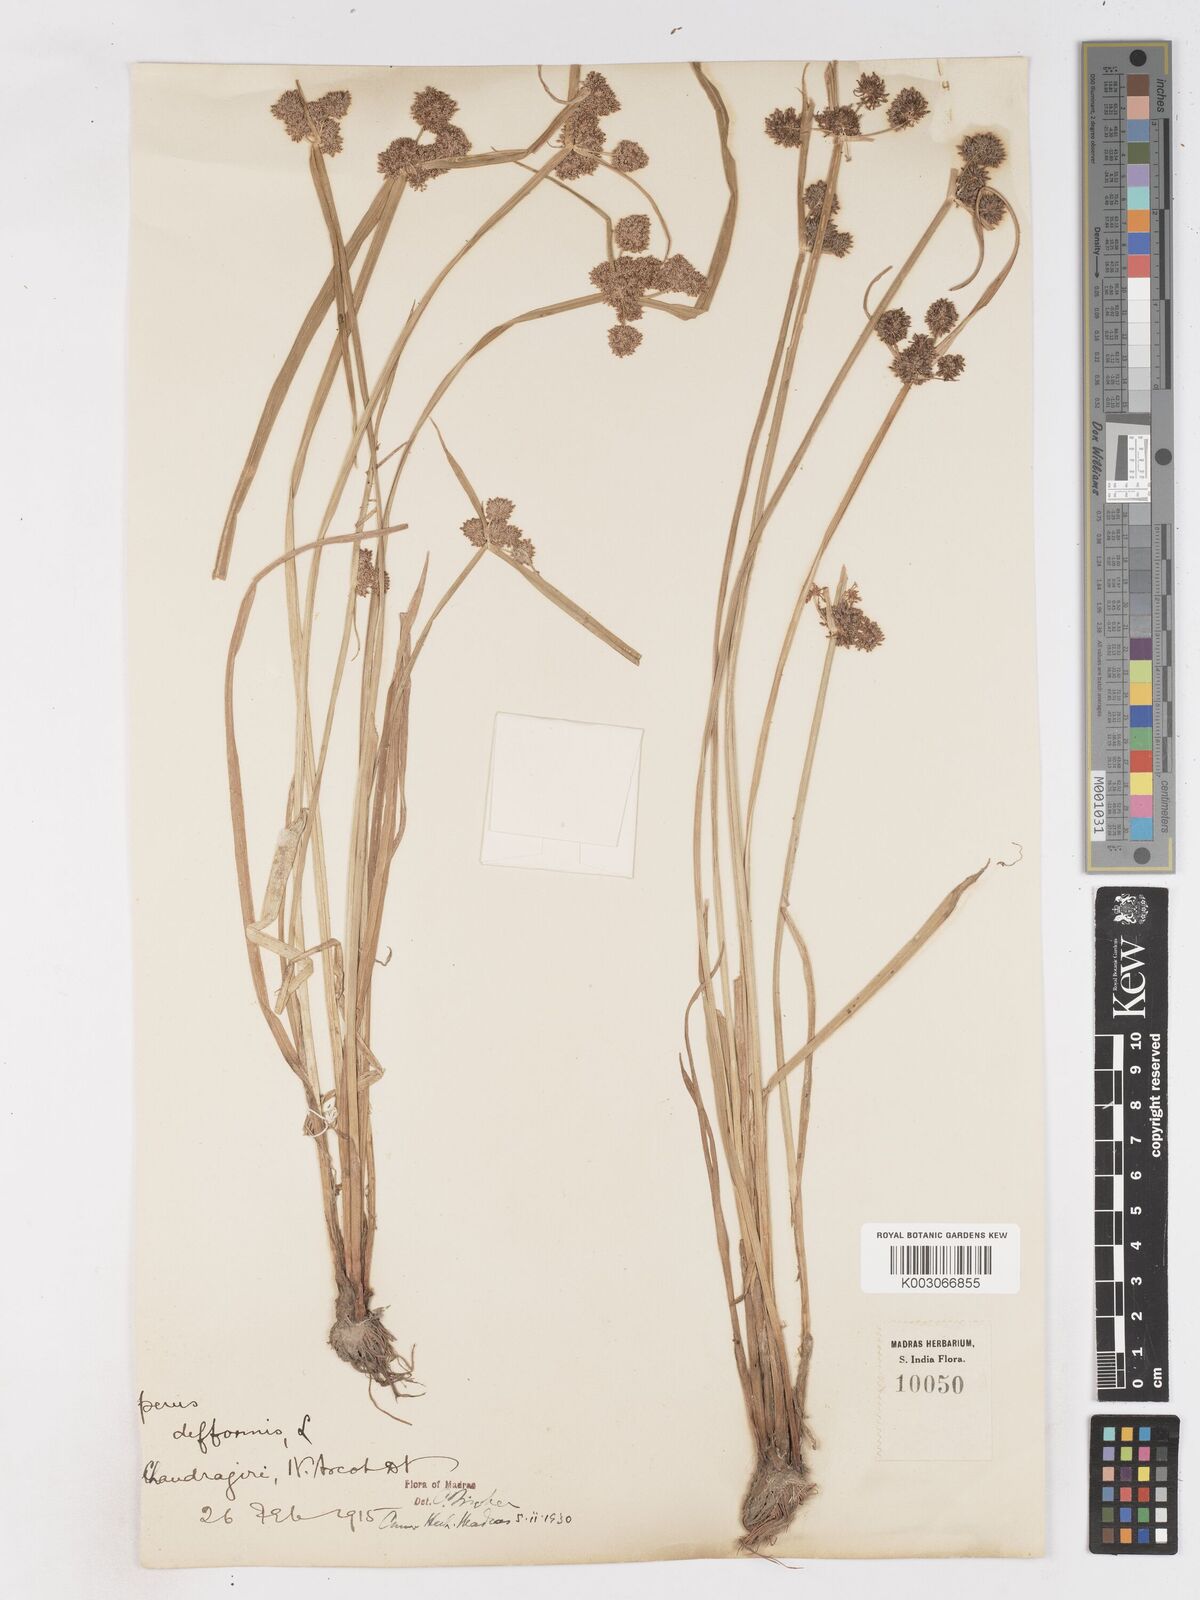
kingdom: Plantae
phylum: Tracheophyta
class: Liliopsida
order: Poales
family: Cyperaceae
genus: Cyperus
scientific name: Cyperus difformis
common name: Variable flatsedge
